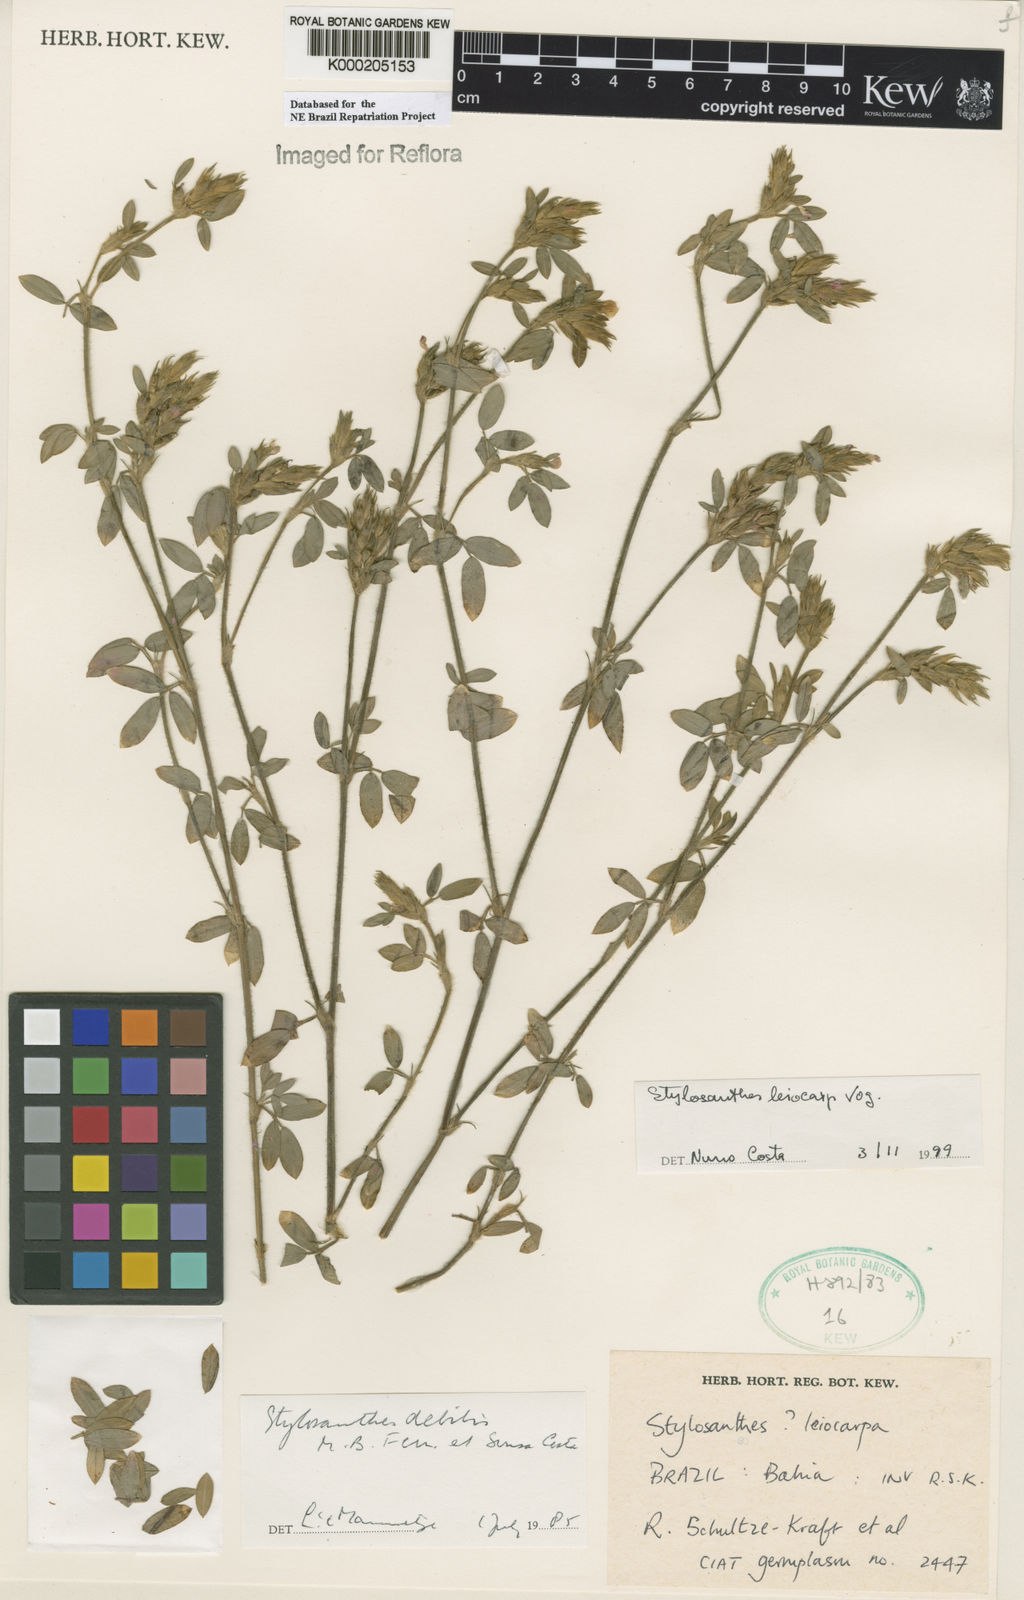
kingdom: Plantae
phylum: Tracheophyta
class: Magnoliopsida
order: Fabales
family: Fabaceae
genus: Stylosanthes
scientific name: Stylosanthes leiocarpa
